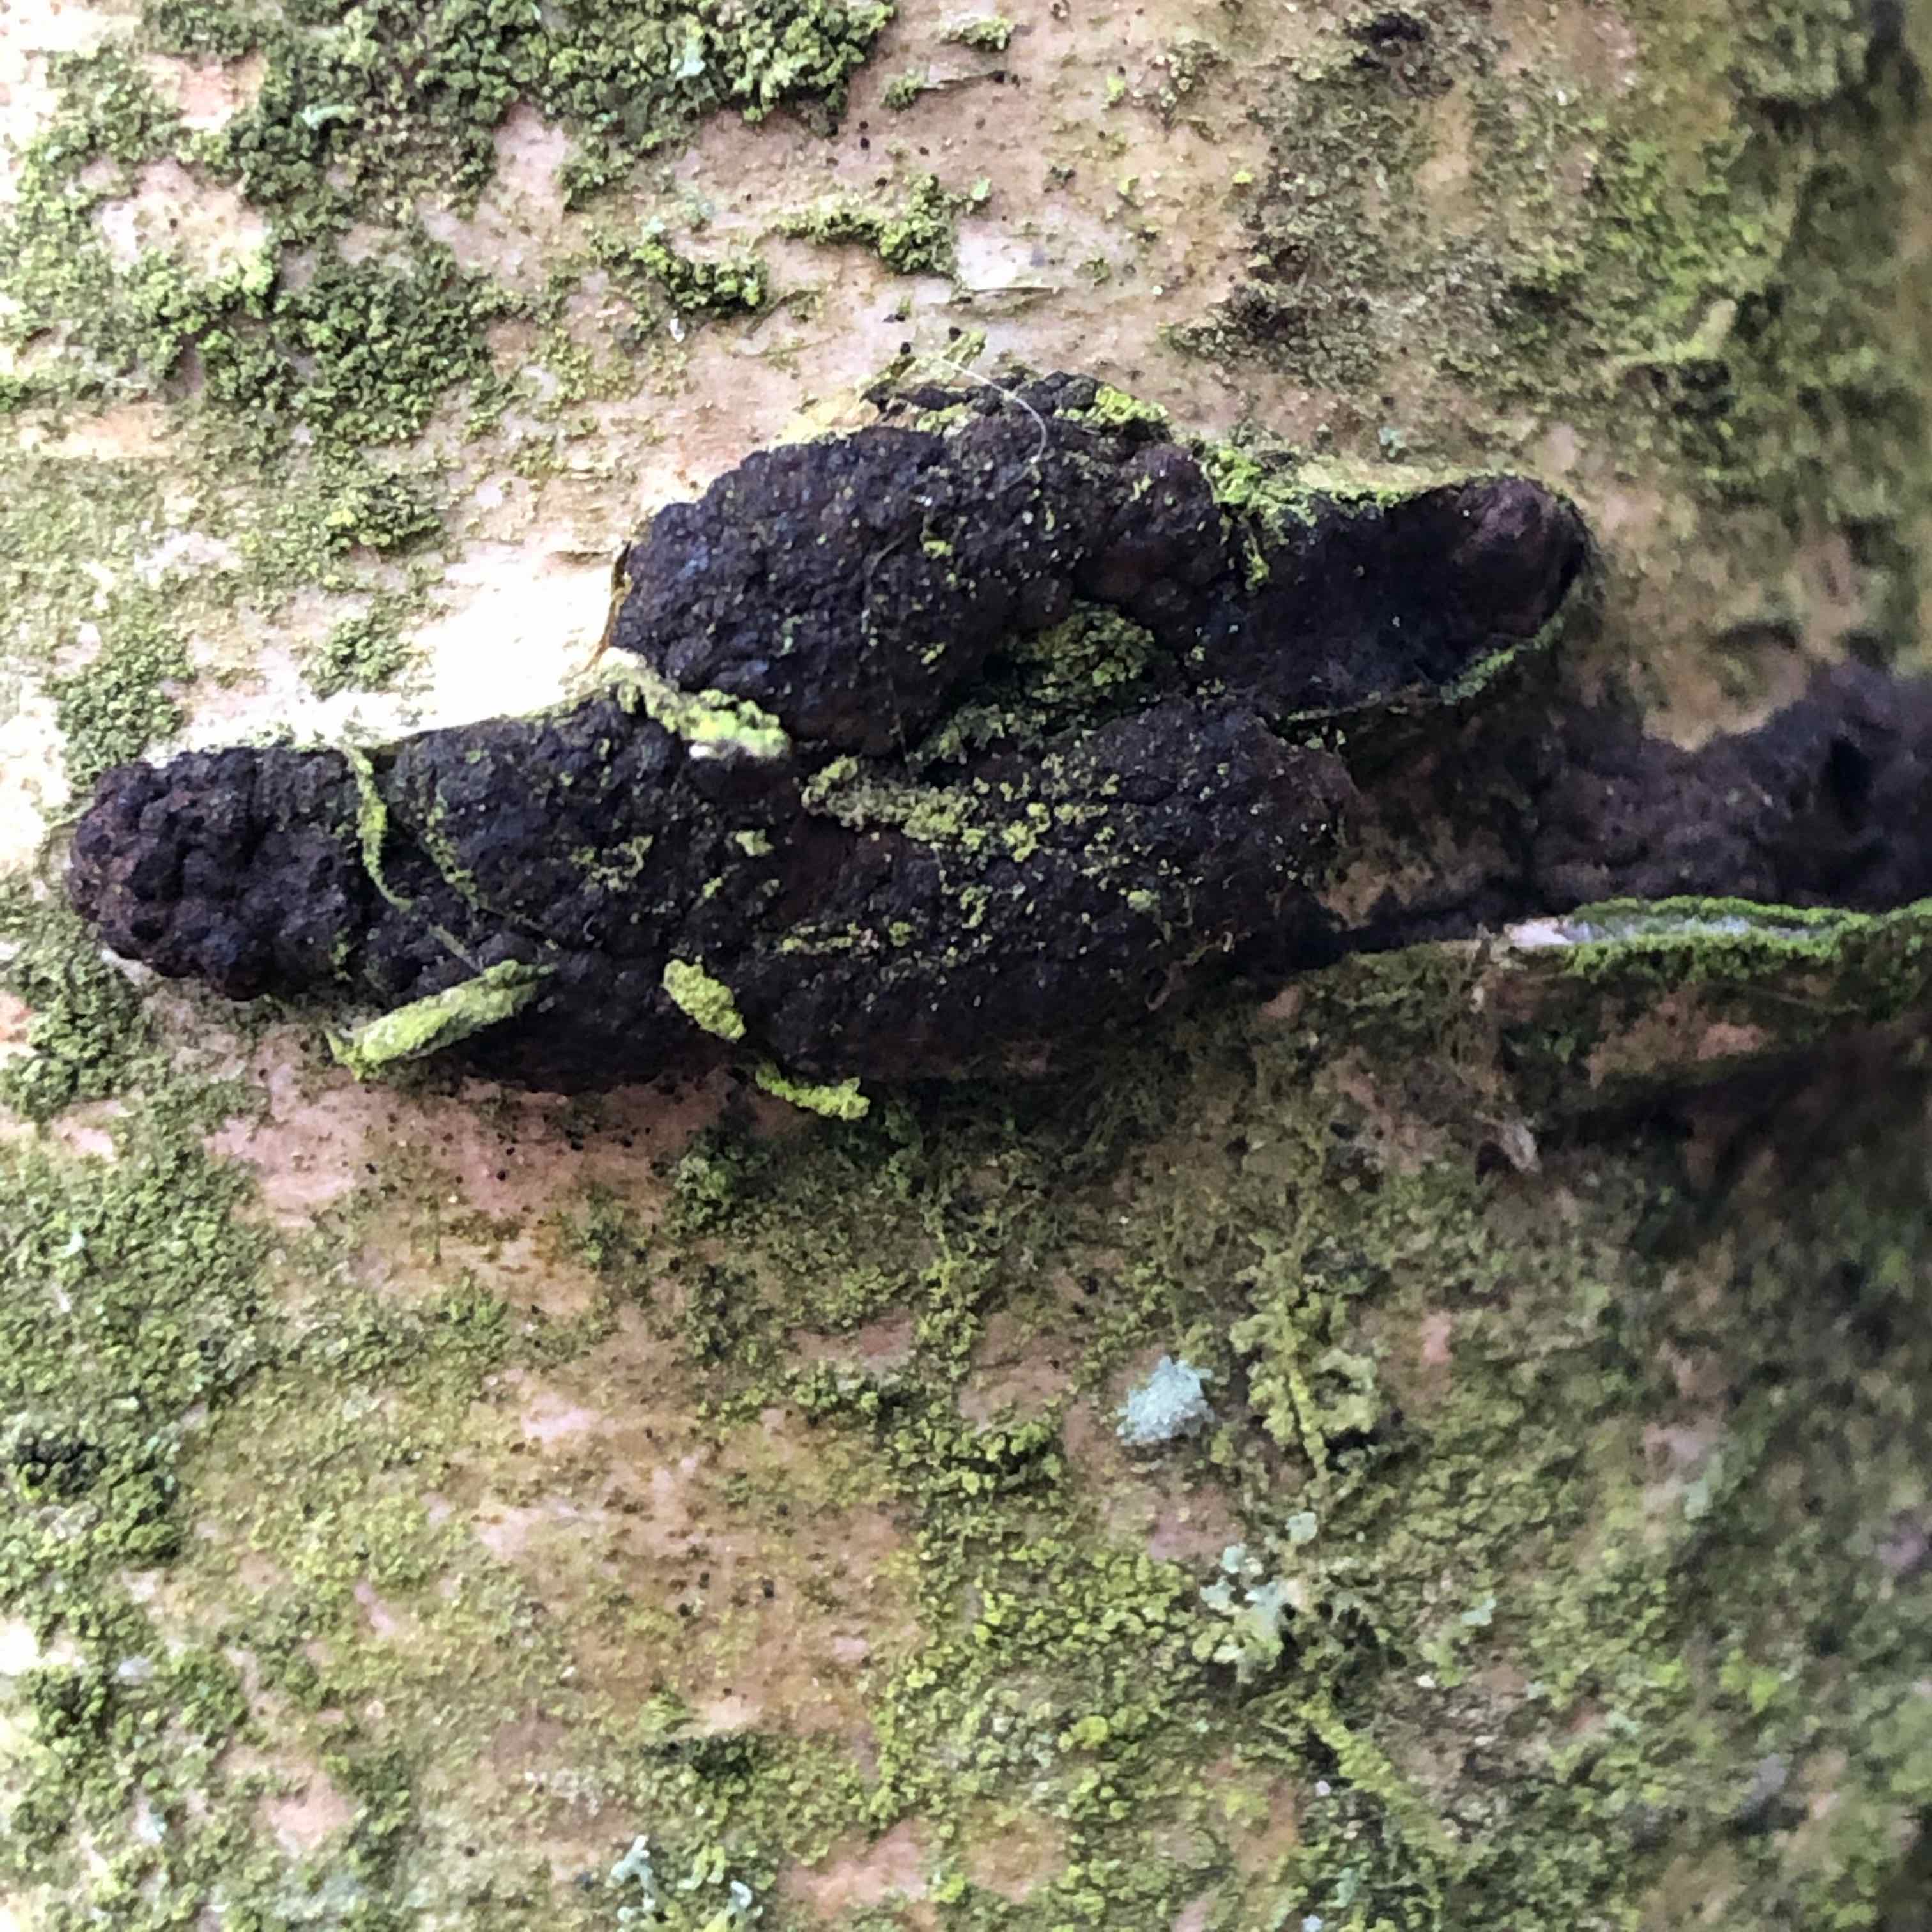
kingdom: Fungi
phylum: Ascomycota
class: Sordariomycetes
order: Xylariales
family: Hypoxylaceae
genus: Jackrogersella
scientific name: Jackrogersella multiformis
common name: foranderlig kulbær
